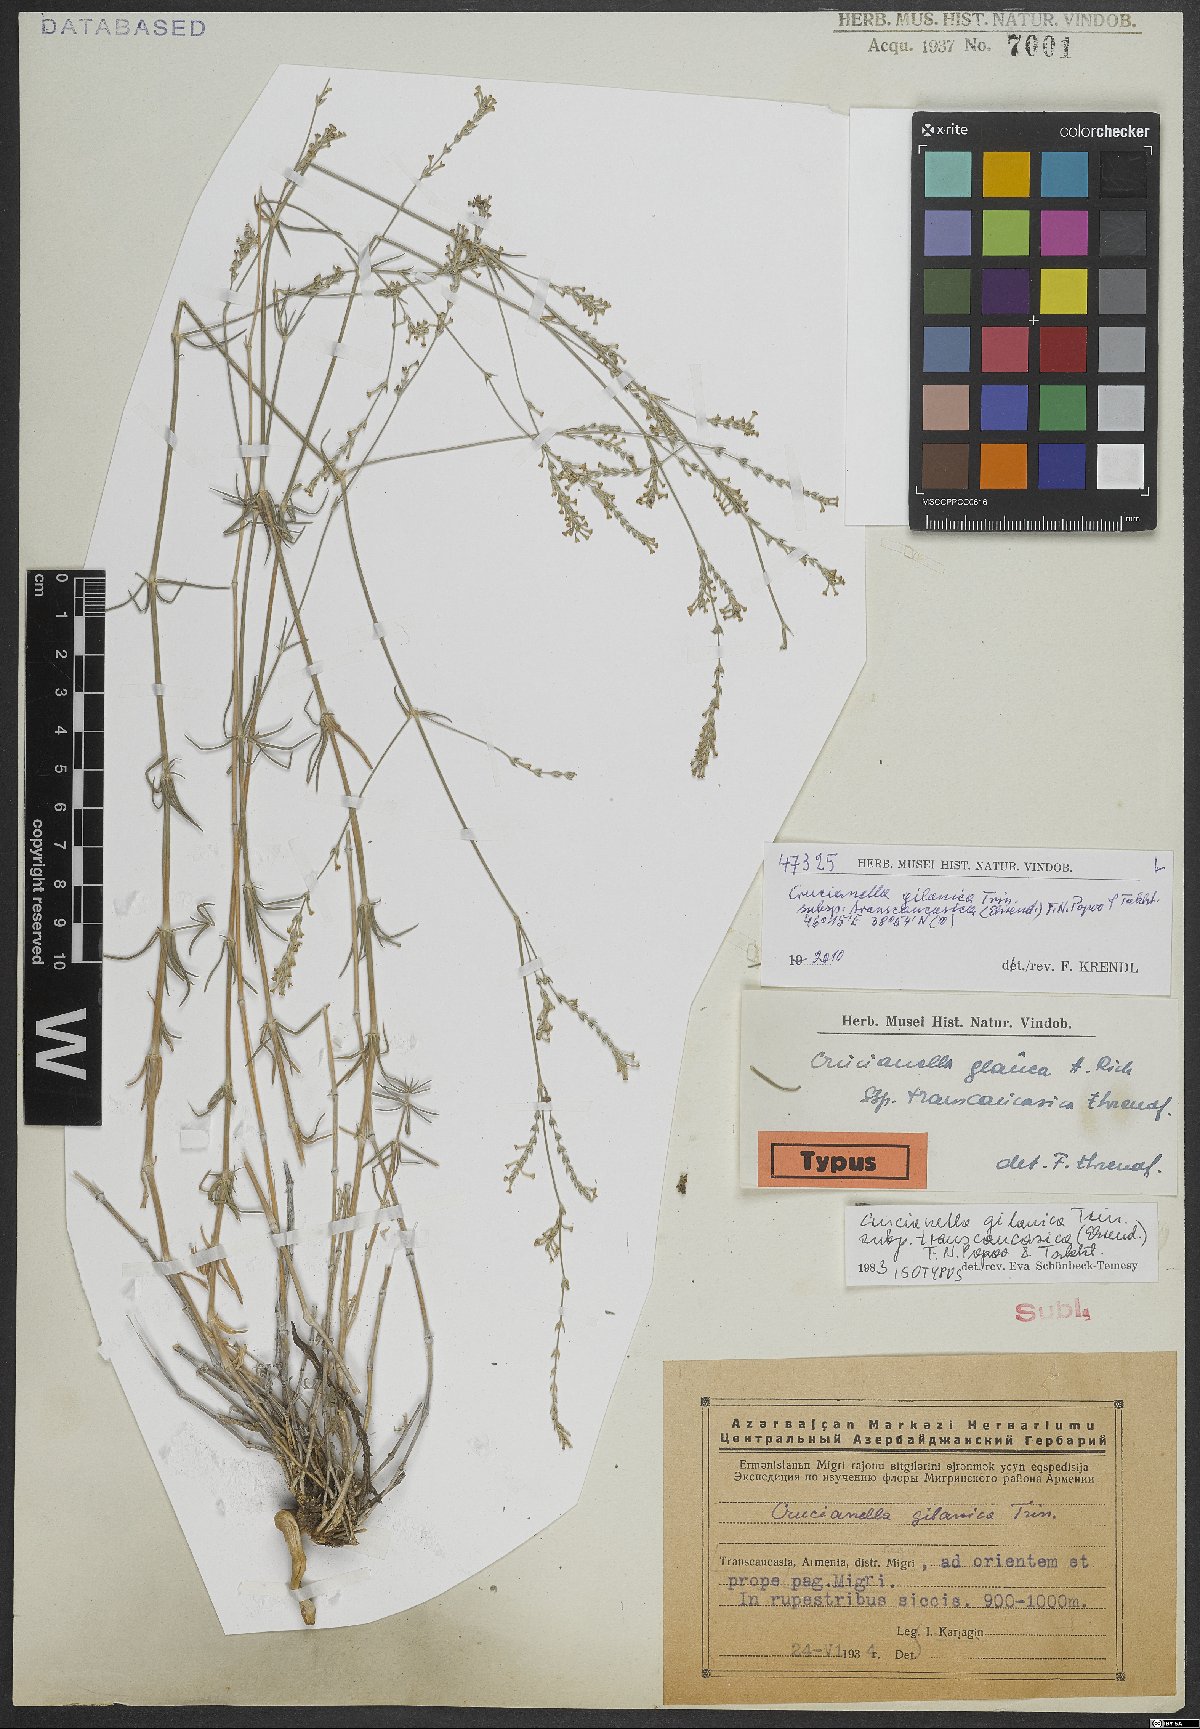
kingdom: Plantae
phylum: Tracheophyta
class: Magnoliopsida
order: Gentianales
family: Rubiaceae
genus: Crucianella
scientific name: Crucianella gilanica
